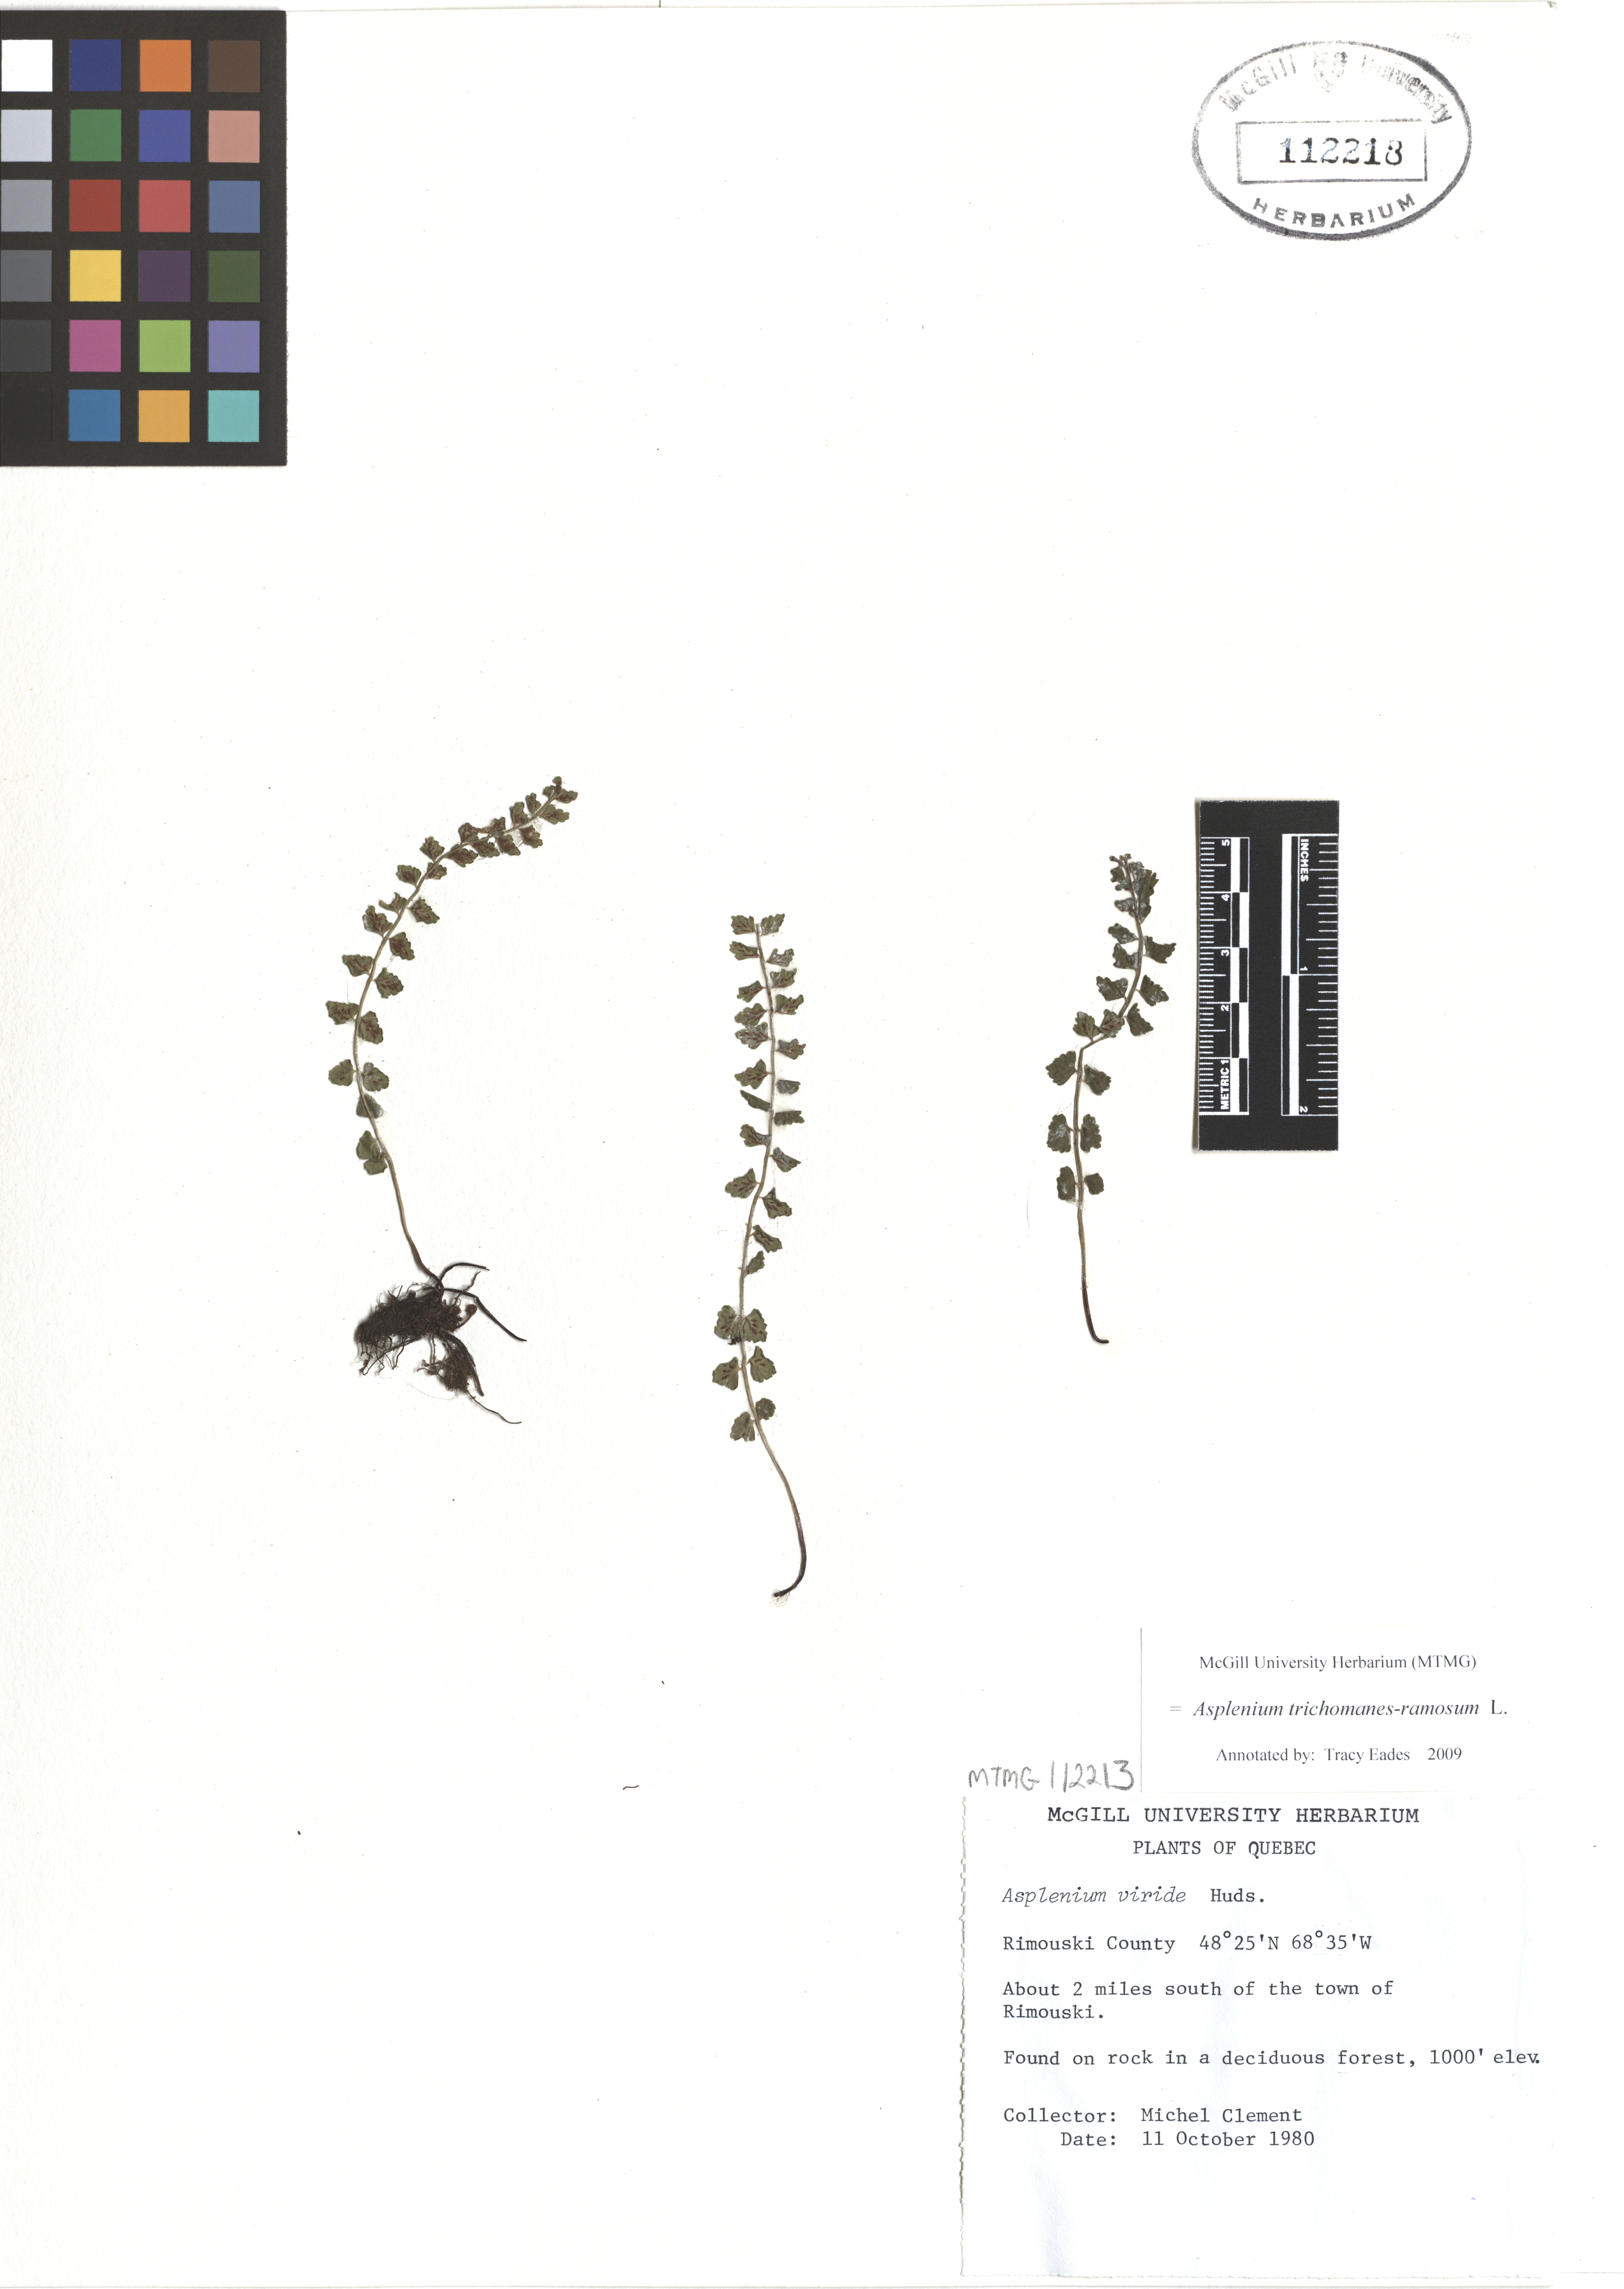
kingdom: Plantae
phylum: Tracheophyta
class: Polypodiopsida
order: Polypodiales
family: Aspleniaceae
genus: Asplenium
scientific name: Asplenium viride
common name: Green spleenwort
